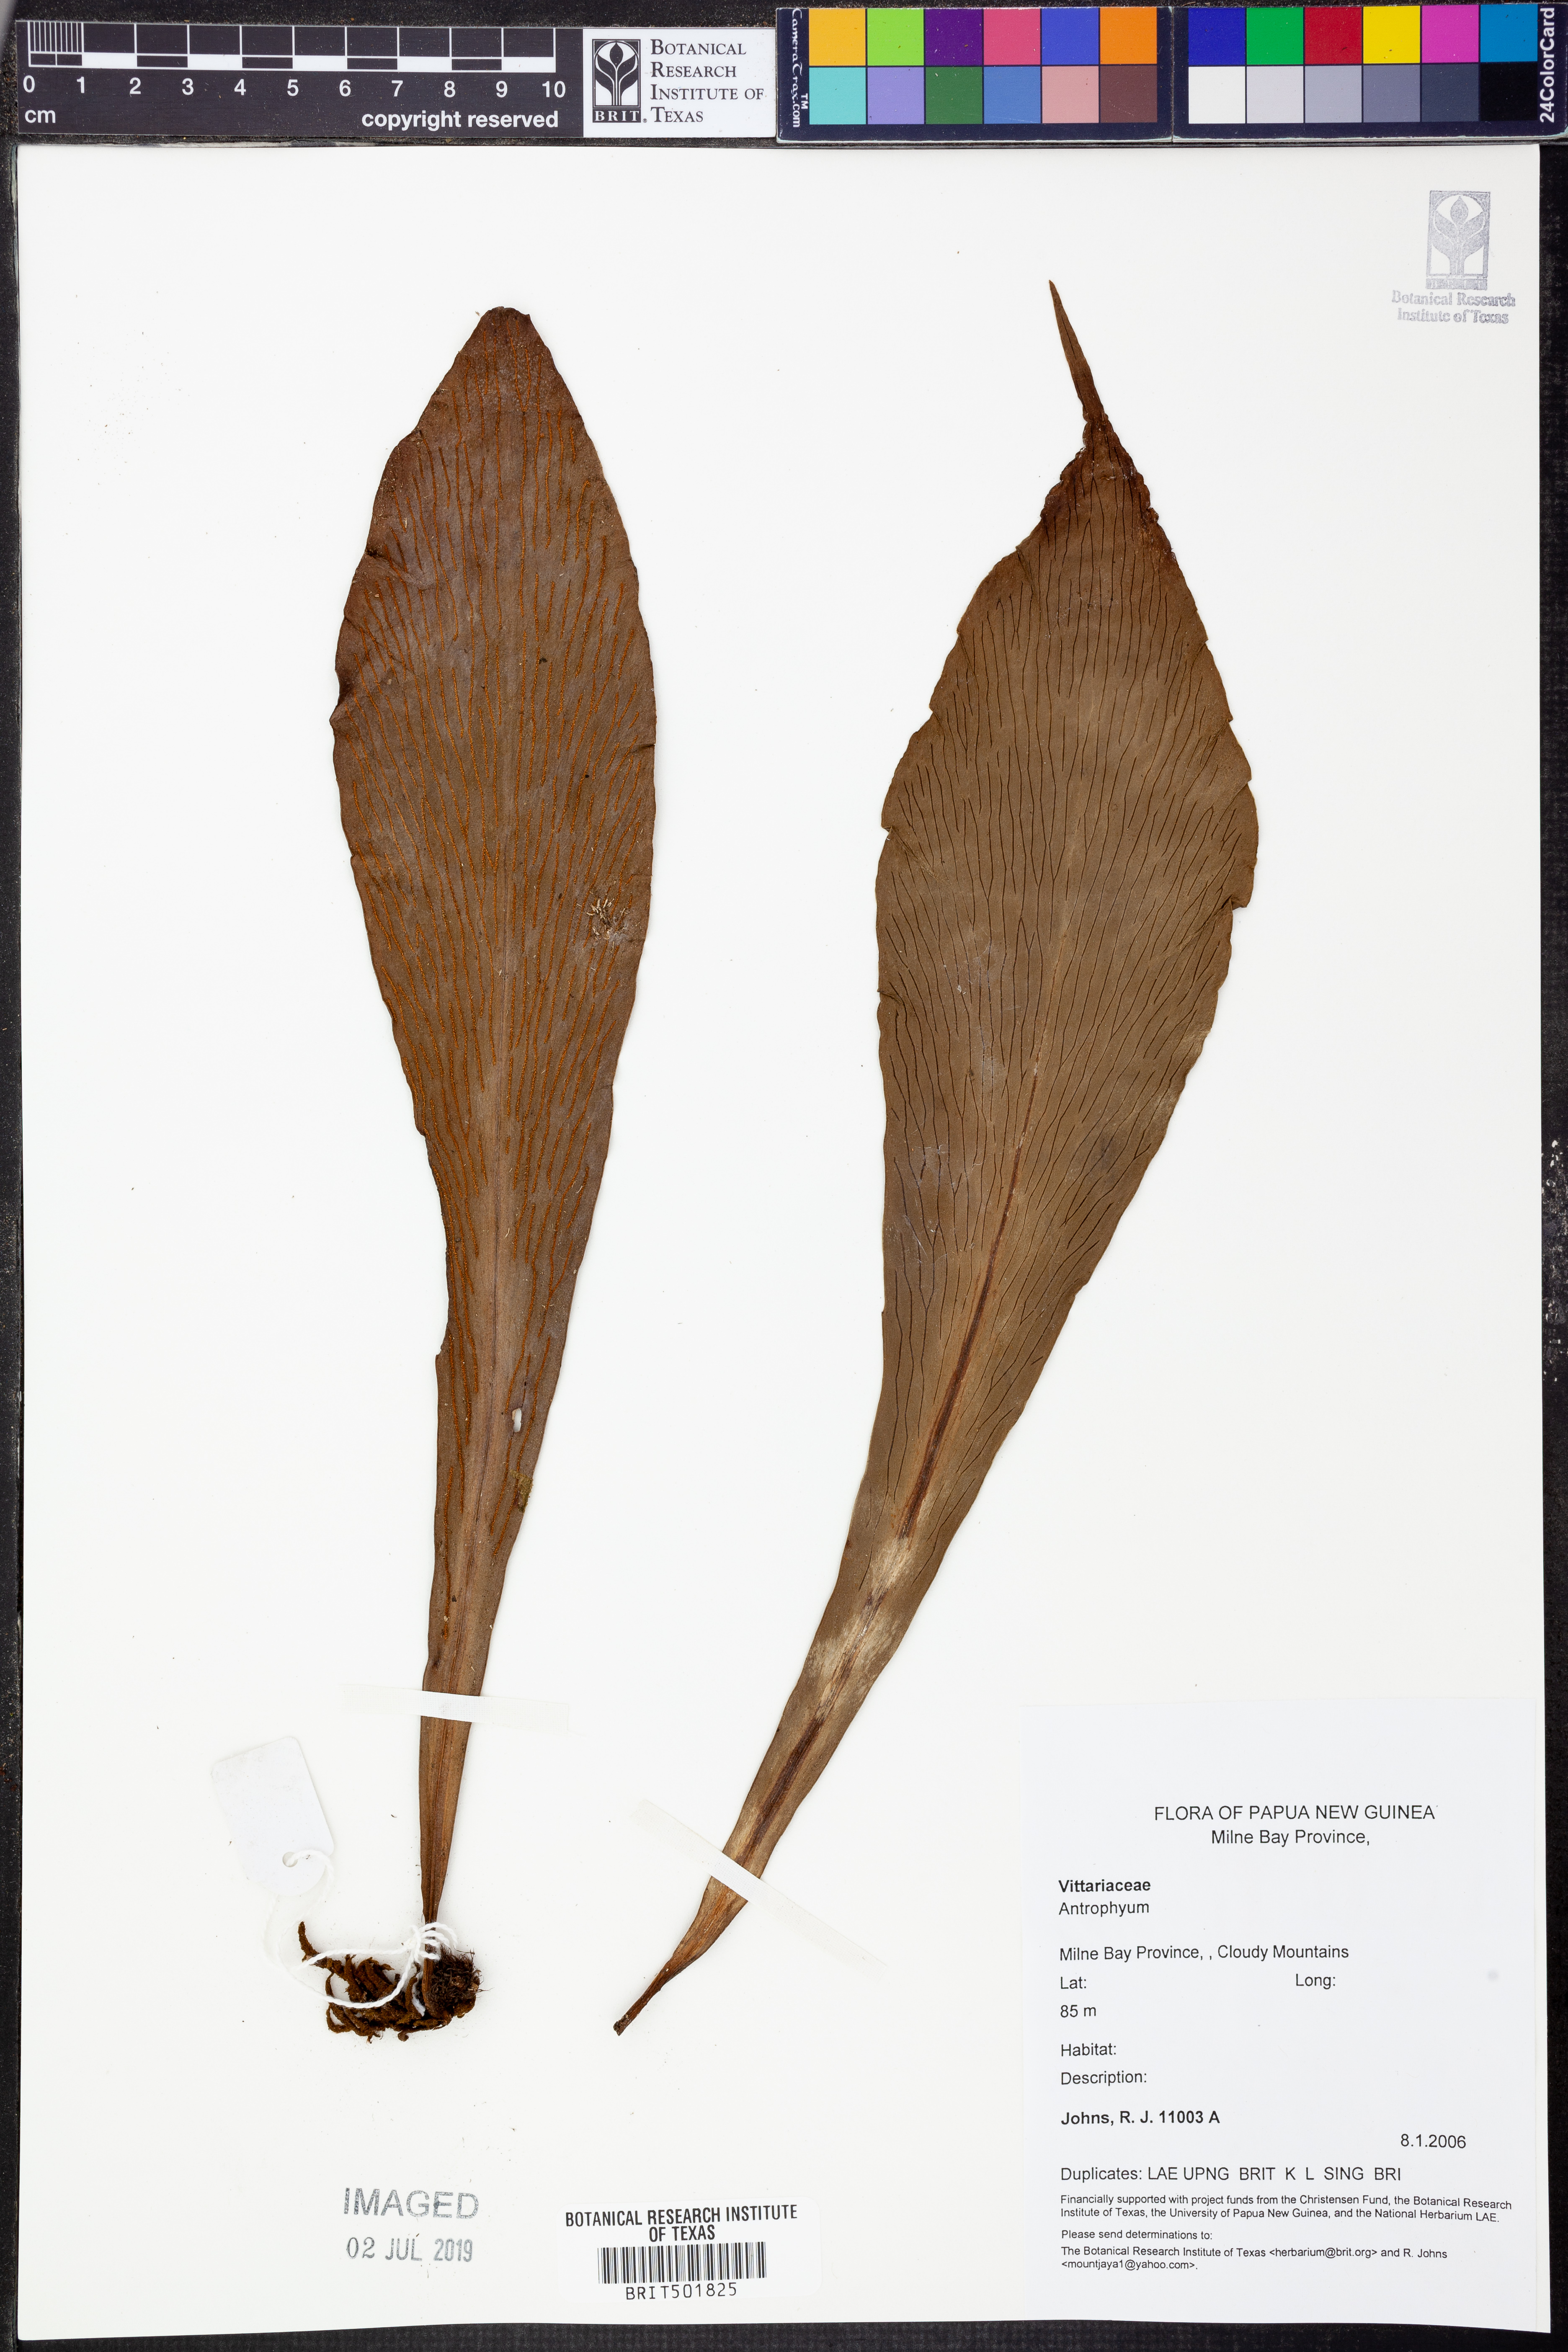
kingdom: Plantae
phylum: Tracheophyta
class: Polypodiopsida
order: Polypodiales
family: Pteridaceae
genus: Antrophyum
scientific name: Antrophyum
